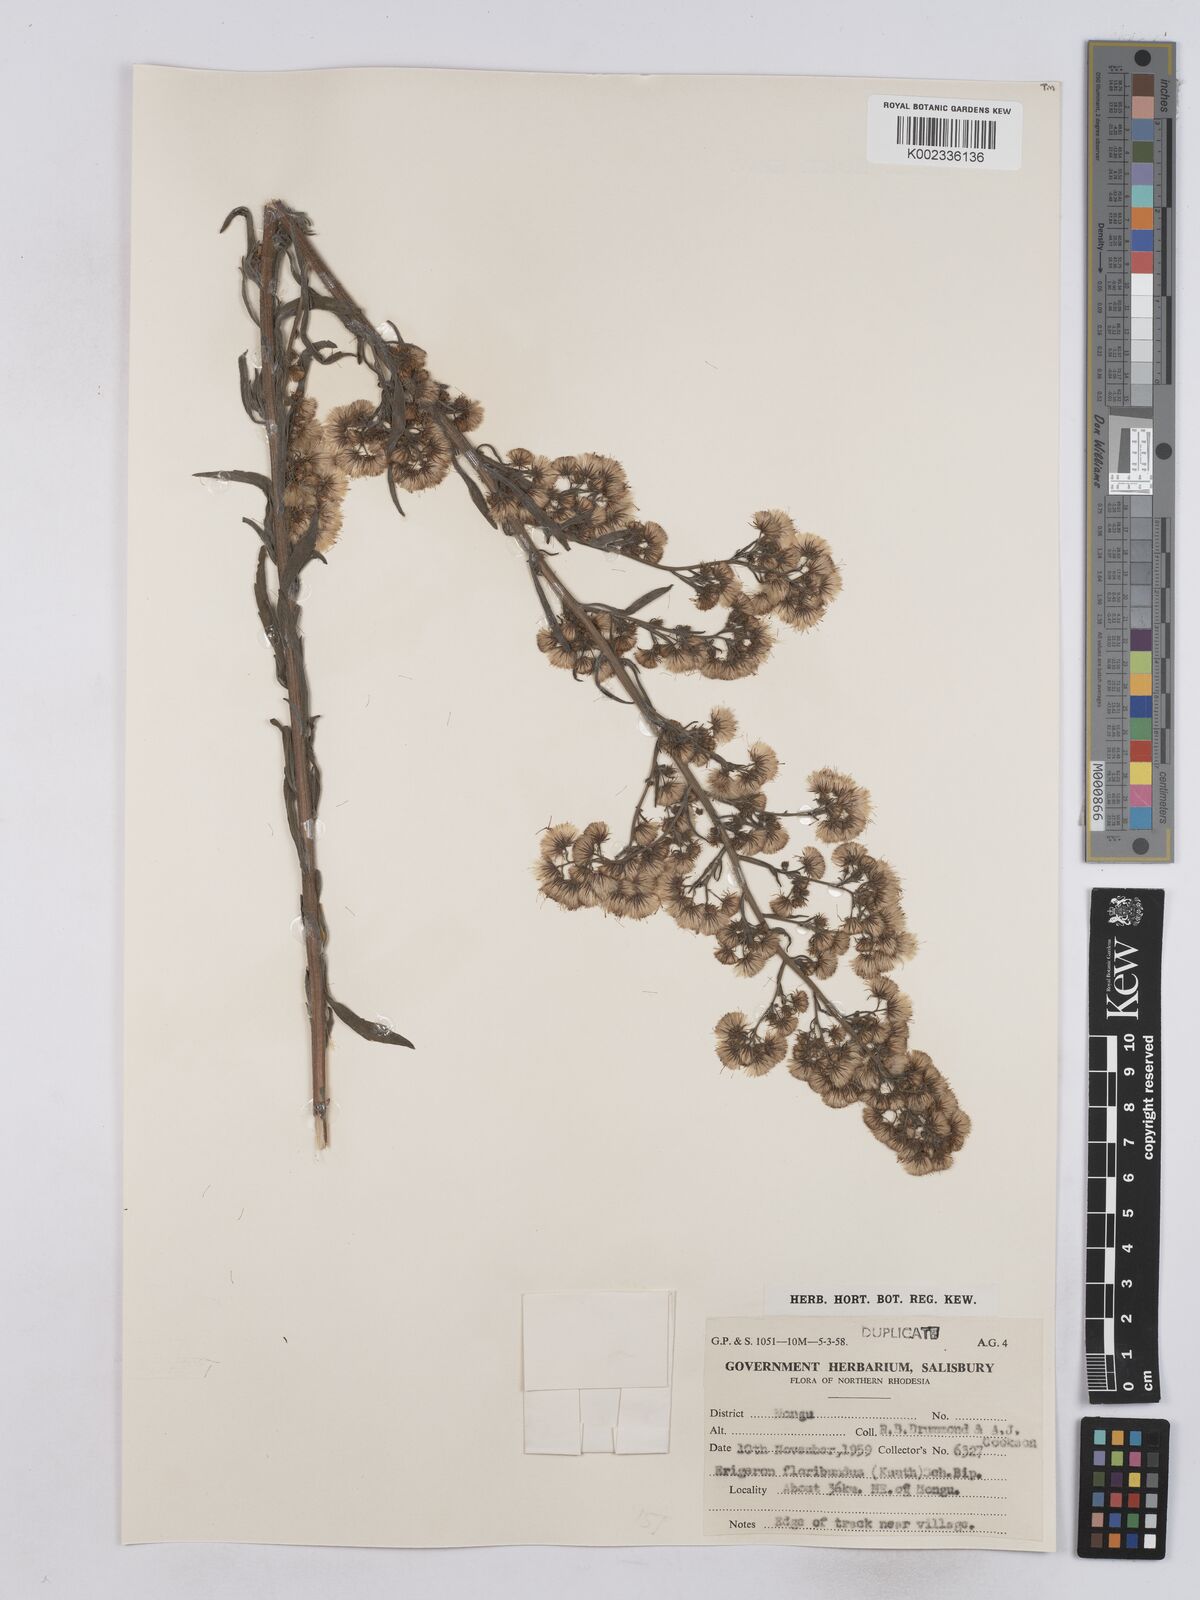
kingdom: Plantae
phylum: Tracheophyta
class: Magnoliopsida
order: Asterales
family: Asteraceae
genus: Erigeron
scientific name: Erigeron floribundus
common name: Bilbao fleabane
